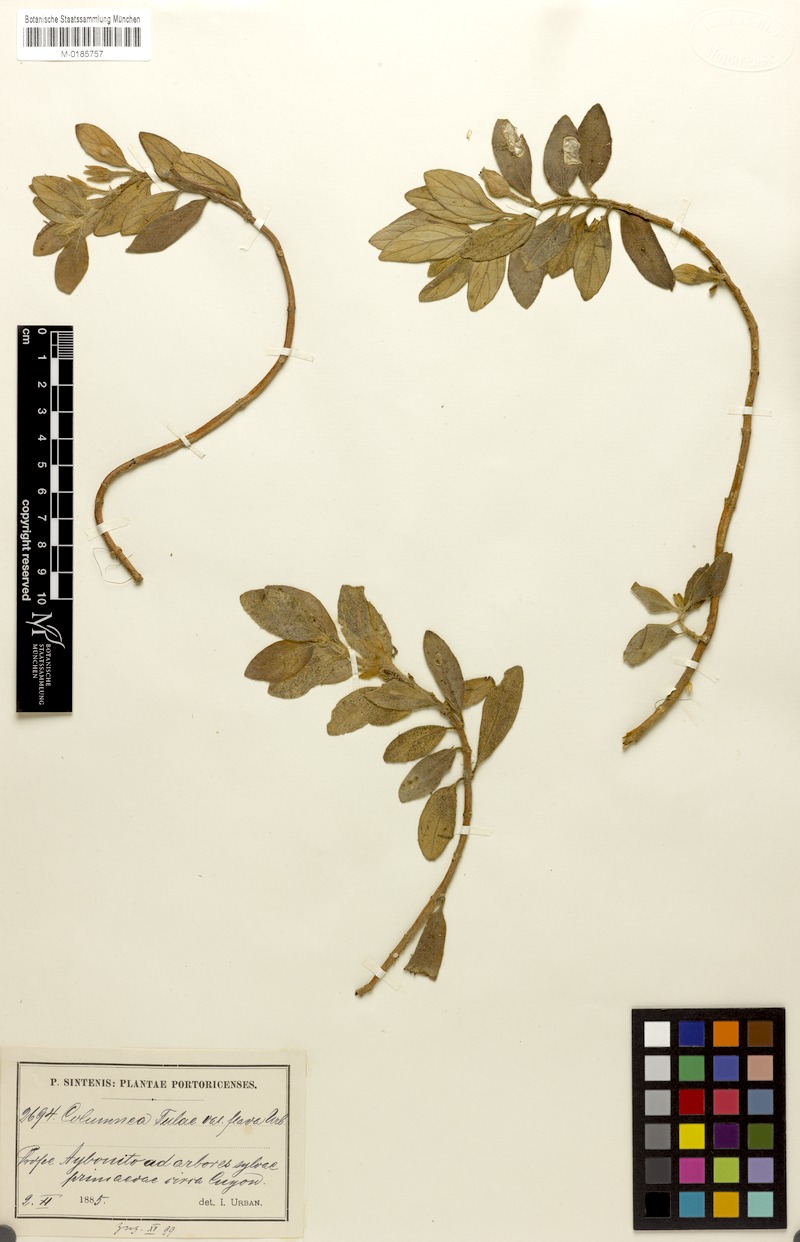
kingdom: Plantae
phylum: Tracheophyta
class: Magnoliopsida
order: Lamiales
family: Gesneriaceae
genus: Columnea
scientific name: Columnea scandens
